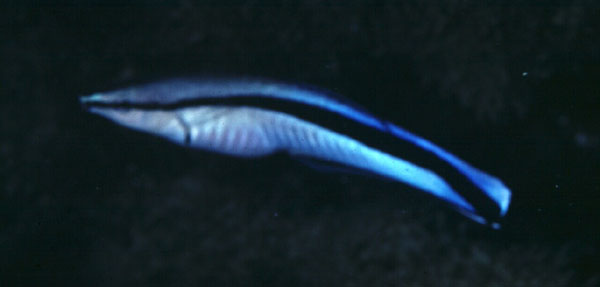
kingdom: Animalia
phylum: Chordata
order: Perciformes
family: Labridae
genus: Labroides
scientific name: Labroides dimidiatus
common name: Blue diesel wrasse
